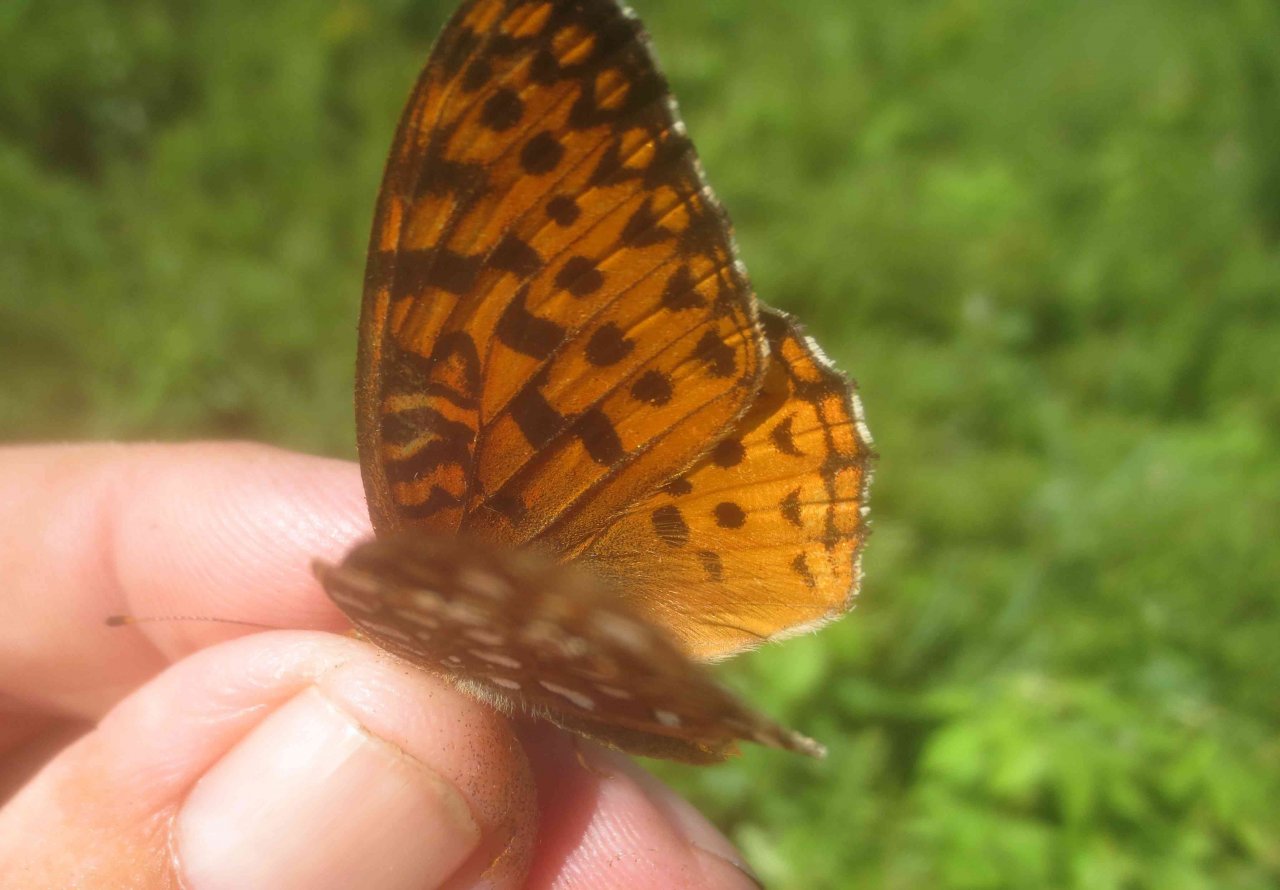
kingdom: Animalia
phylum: Arthropoda
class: Insecta
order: Lepidoptera
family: Nymphalidae
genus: Speyeria
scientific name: Speyeria aphrodite
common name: Aphrodite Fritillary
